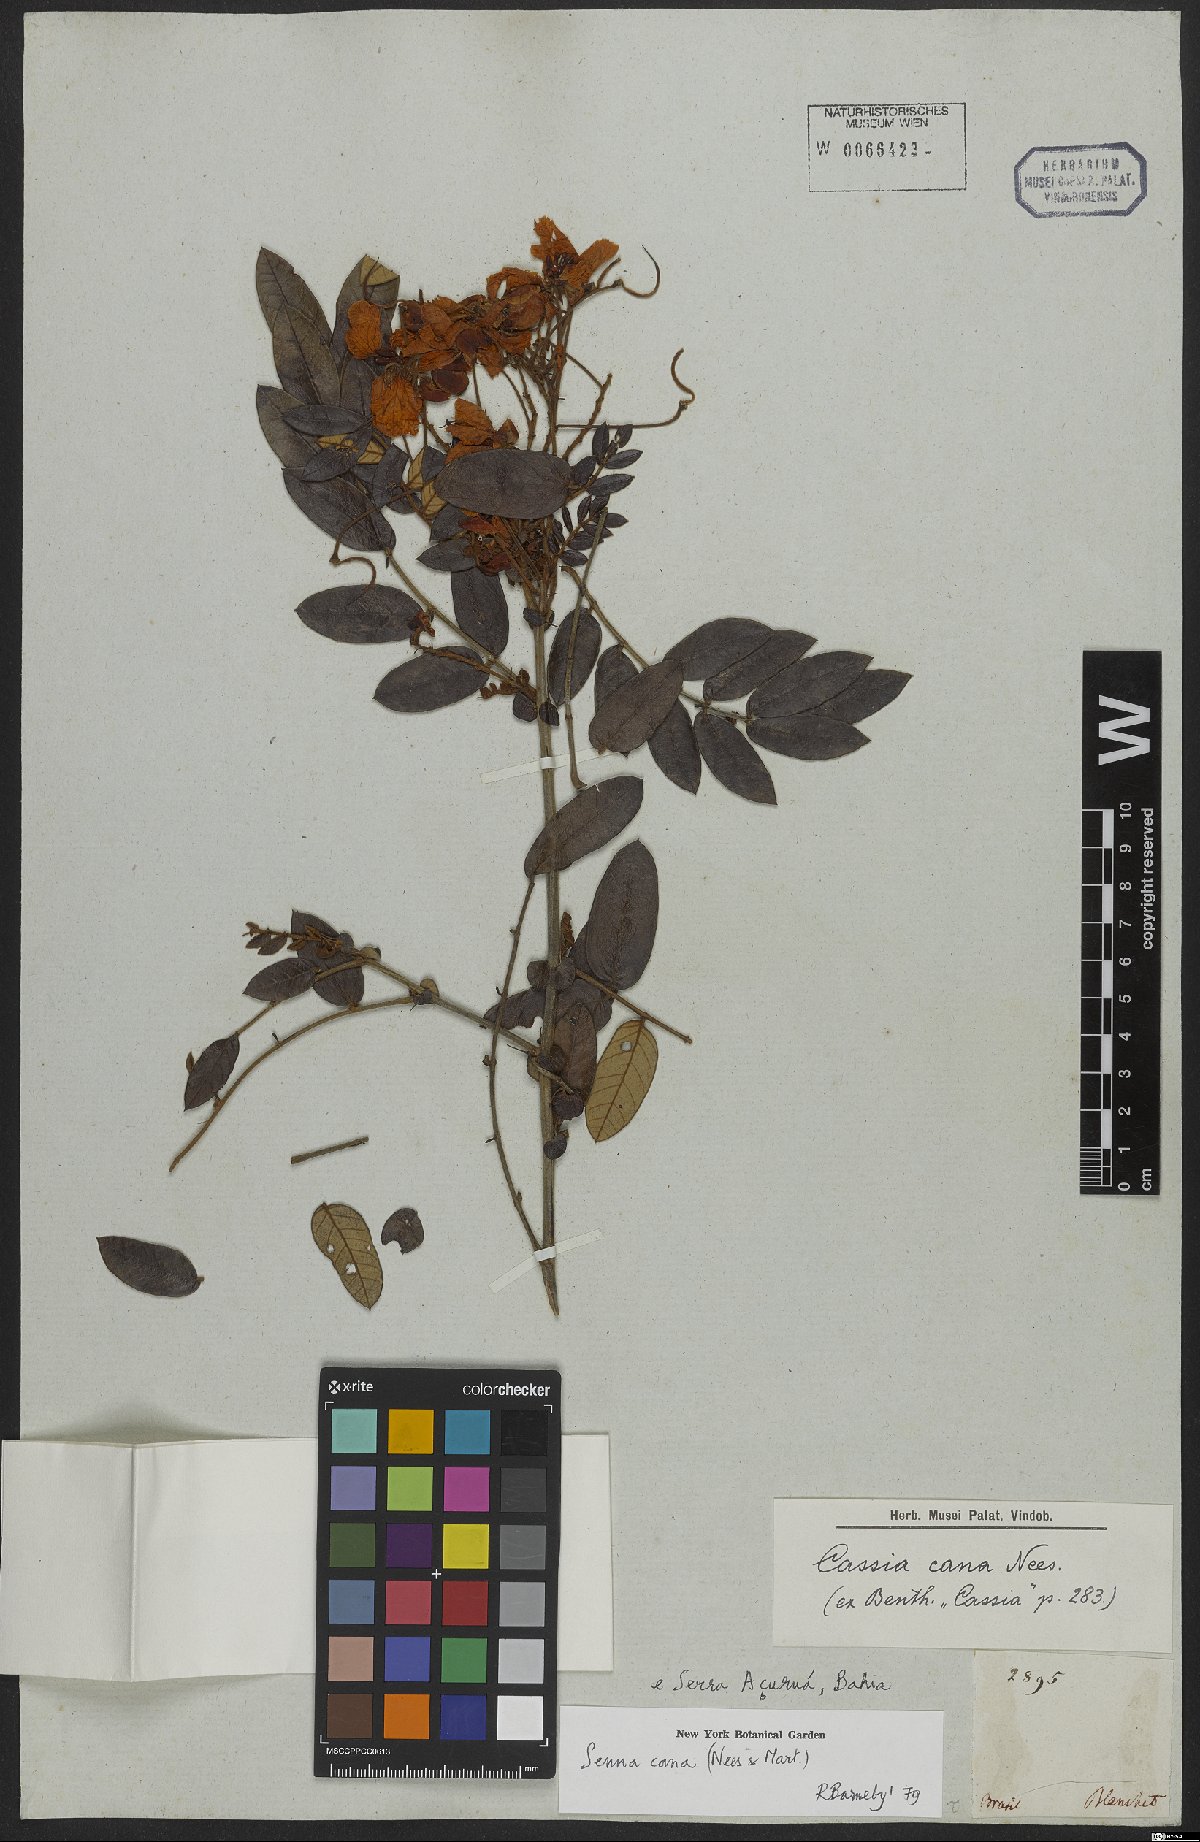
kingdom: Plantae
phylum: Tracheophyta
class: Magnoliopsida
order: Fabales
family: Fabaceae
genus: Senna
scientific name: Senna cana
